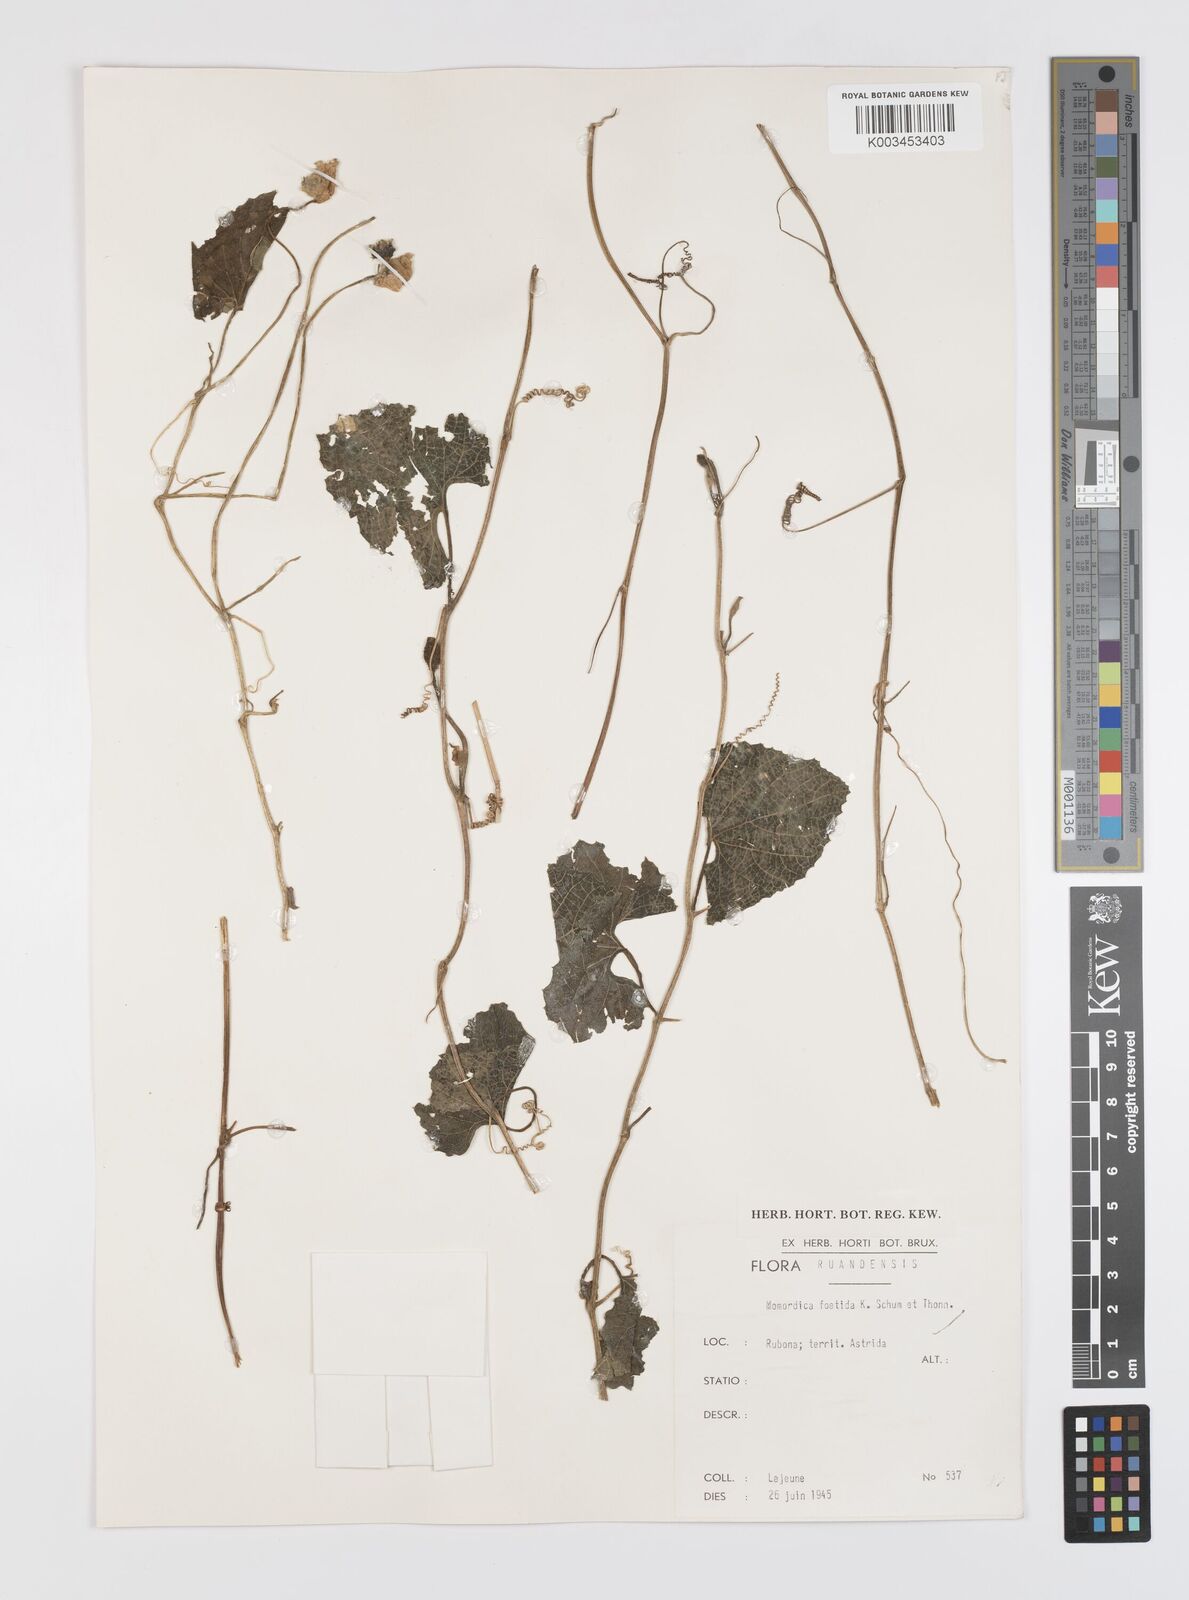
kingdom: Plantae
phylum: Tracheophyta
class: Magnoliopsida
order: Cucurbitales
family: Cucurbitaceae
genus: Momordica
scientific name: Momordica foetida
